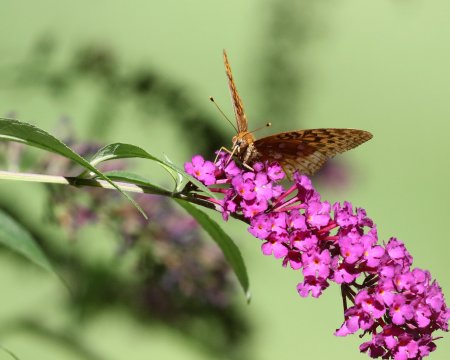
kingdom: Animalia
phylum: Arthropoda
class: Insecta
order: Lepidoptera
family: Nymphalidae
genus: Speyeria
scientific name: Speyeria cybele
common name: Great Spangled Fritillary
